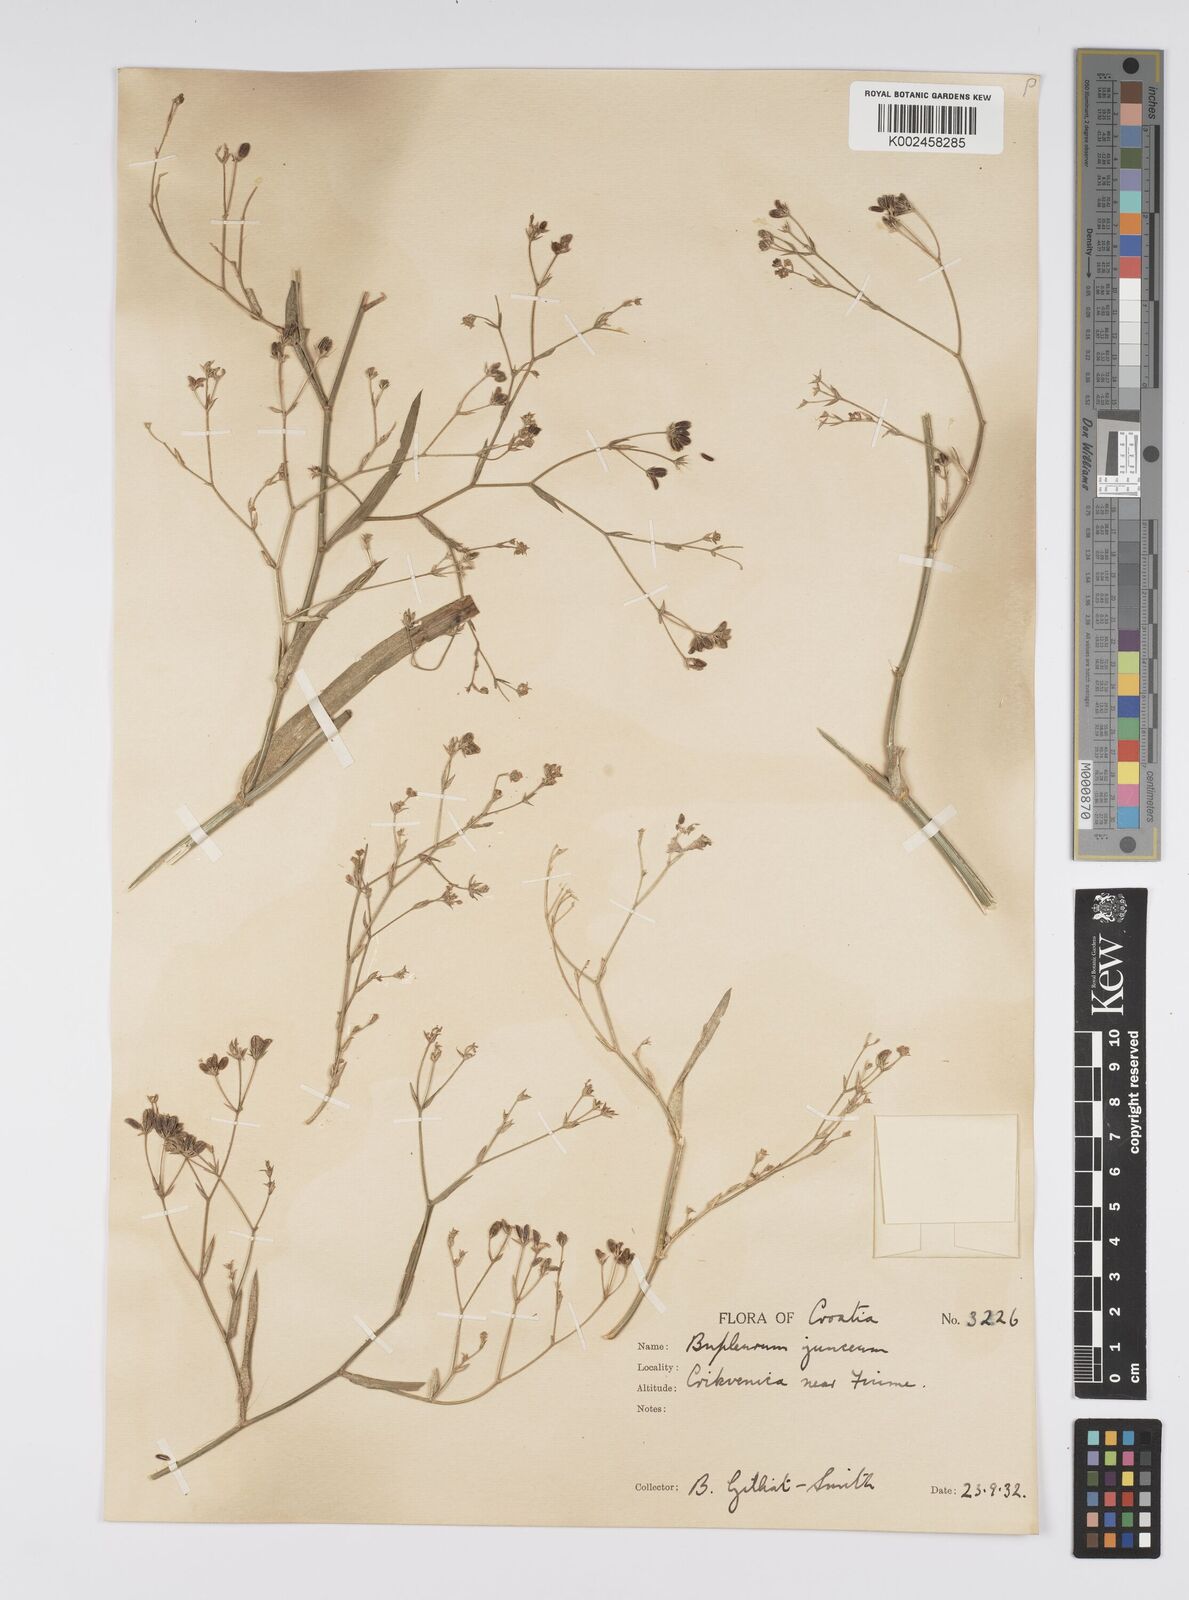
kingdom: Plantae
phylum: Tracheophyta
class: Magnoliopsida
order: Apiales
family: Apiaceae
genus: Bupleurum
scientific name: Bupleurum praealtum
